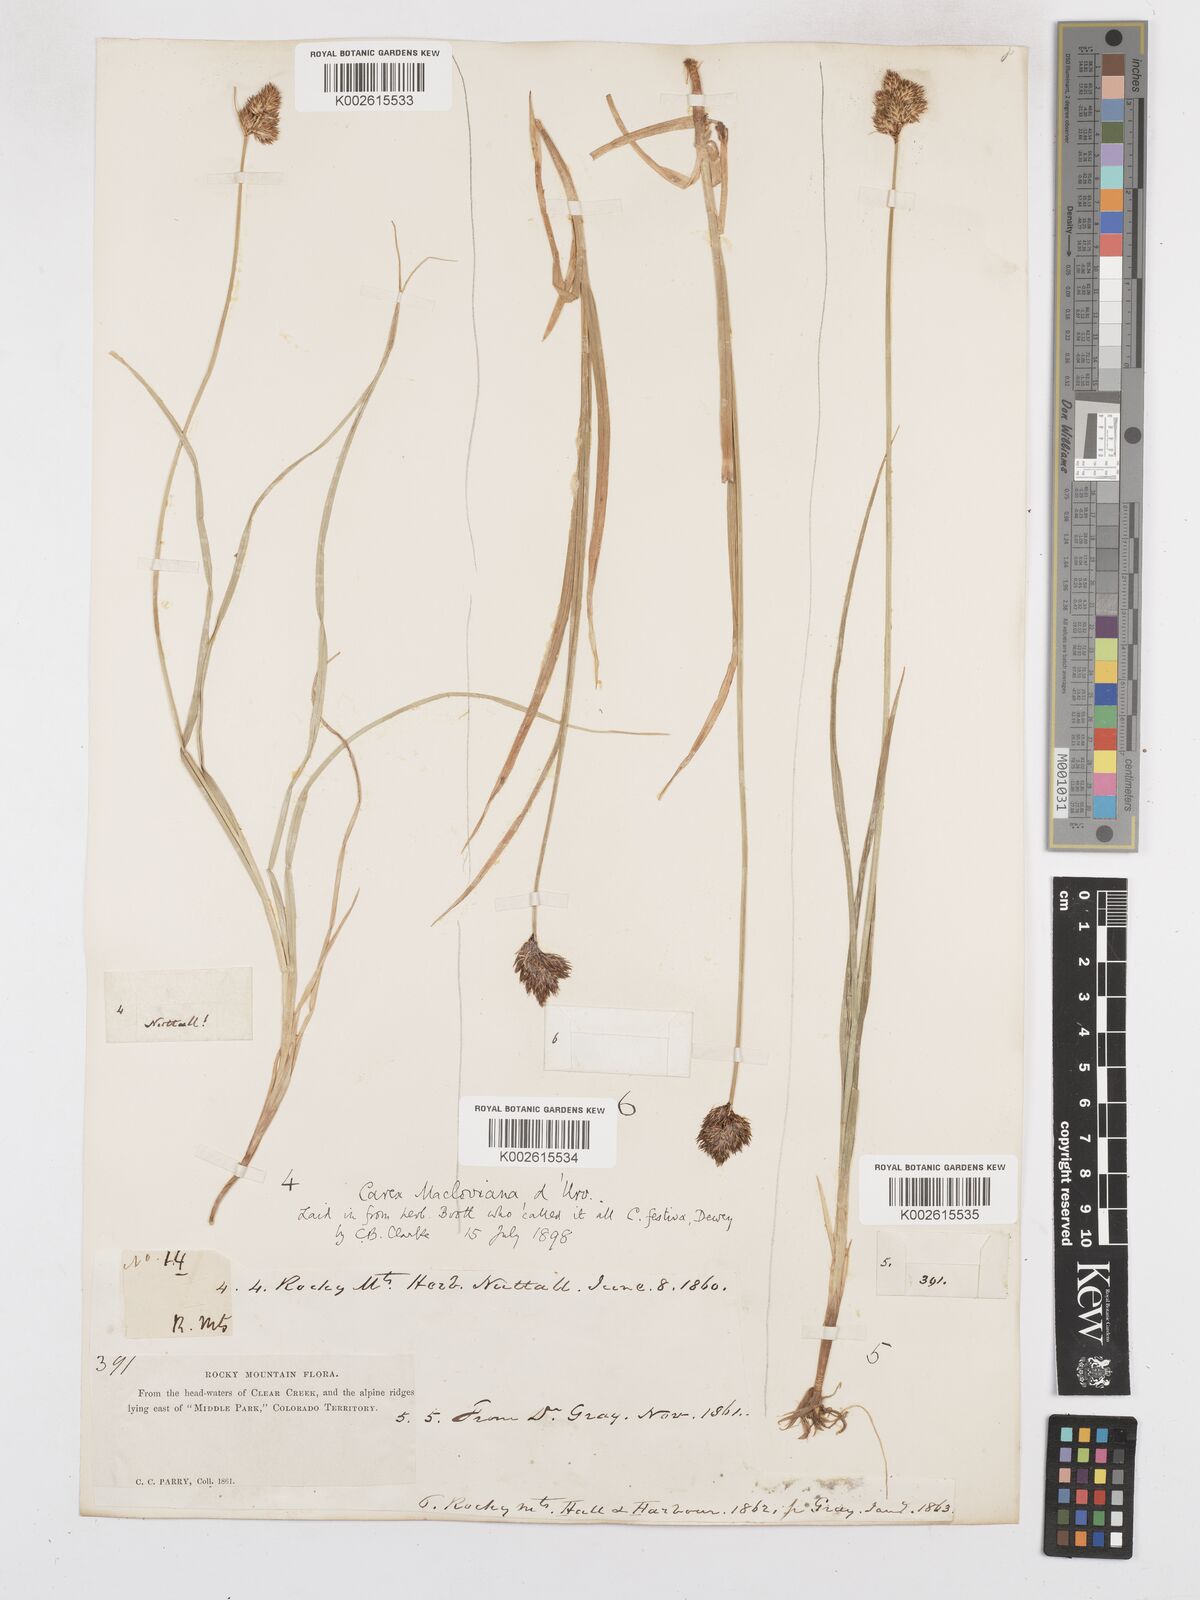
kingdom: Plantae
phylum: Tracheophyta
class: Liliopsida
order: Poales
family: Cyperaceae
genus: Carex
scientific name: Carex subfusca
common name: Brown sedge
